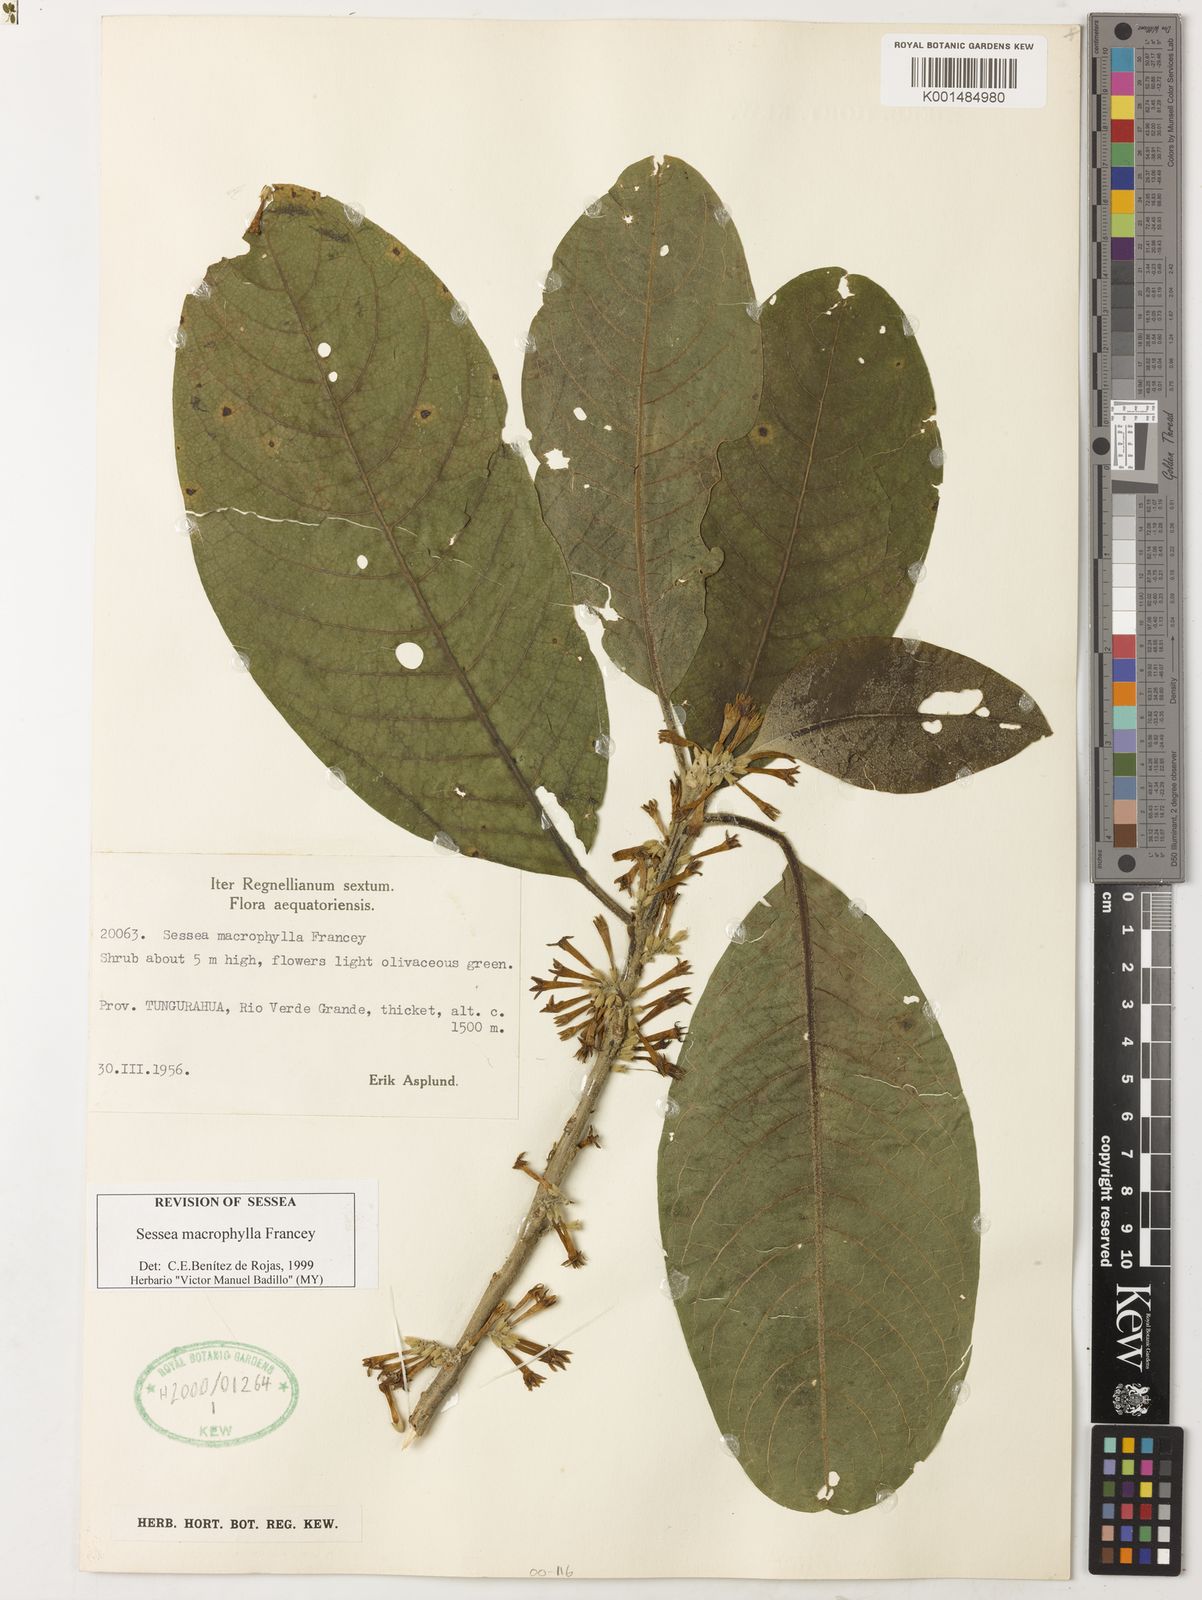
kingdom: Plantae
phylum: Tracheophyta
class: Magnoliopsida
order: Solanales
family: Solanaceae
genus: Sessea
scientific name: Sessea macrophylla
